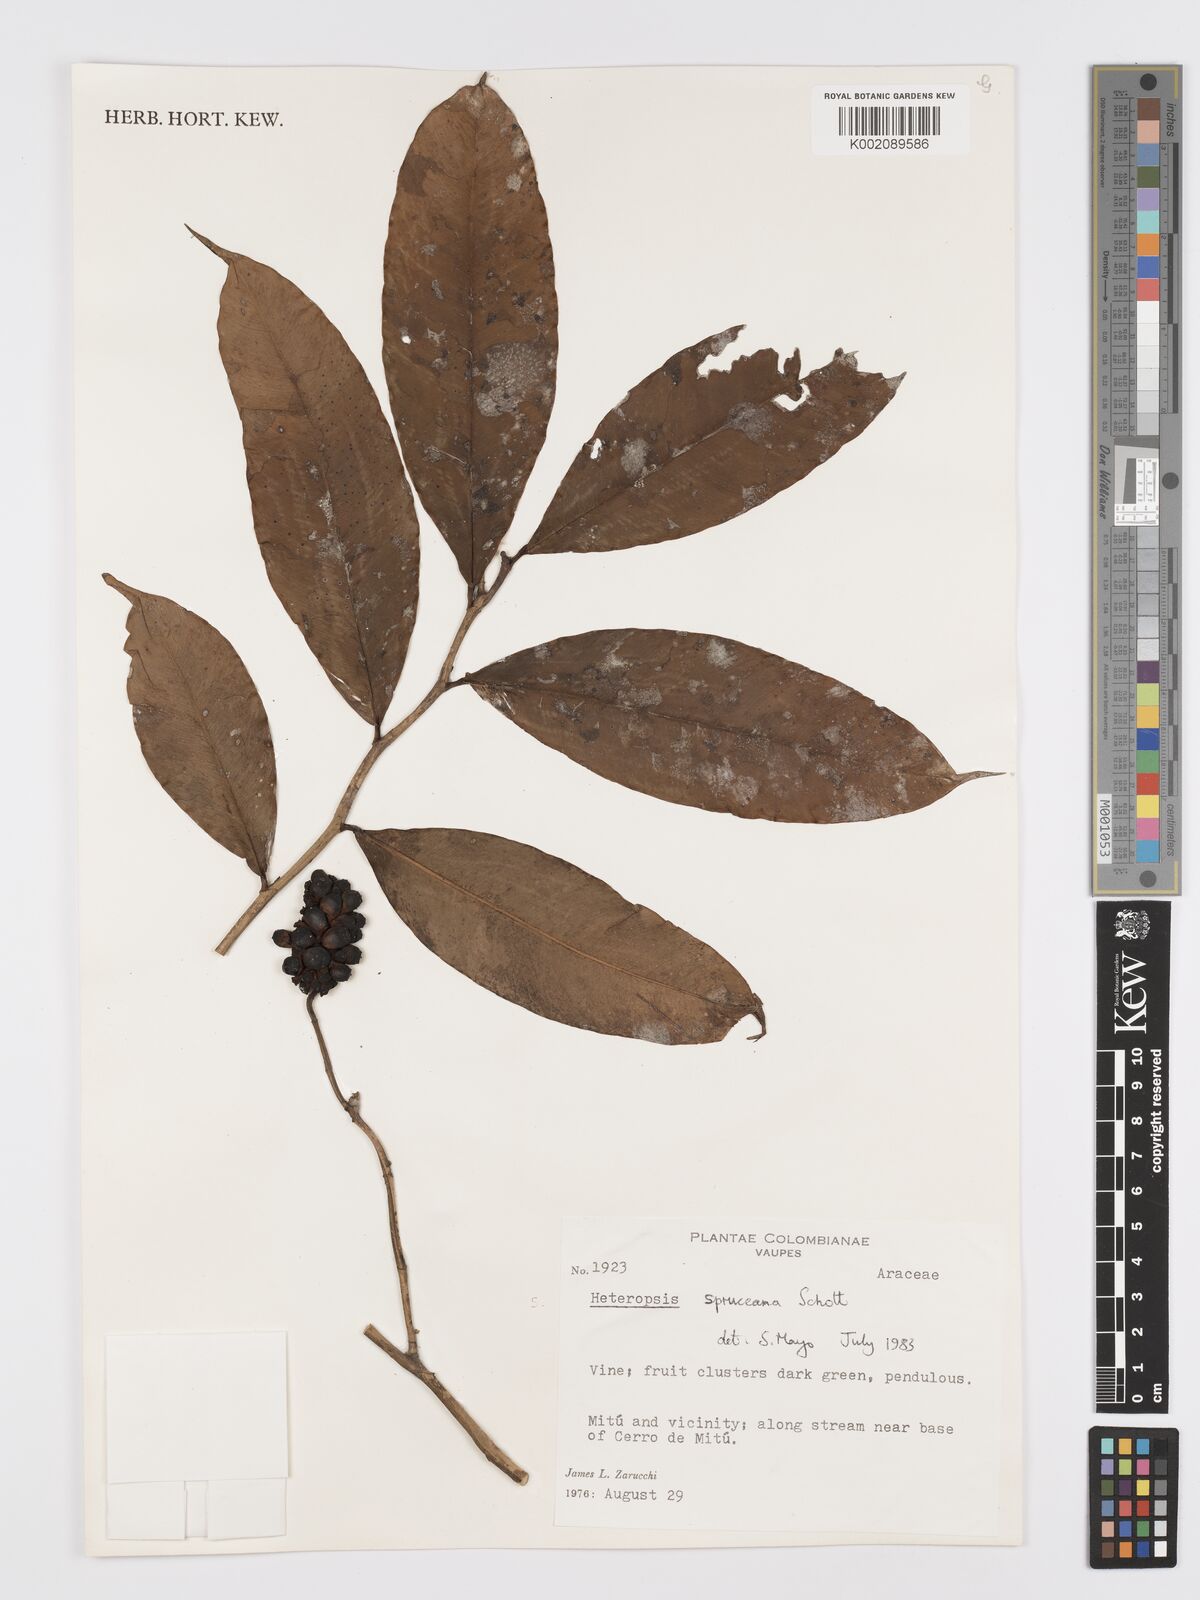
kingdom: Plantae
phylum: Tracheophyta
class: Liliopsida
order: Alismatales
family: Araceae
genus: Heteropsis
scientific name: Heteropsis spruceana
